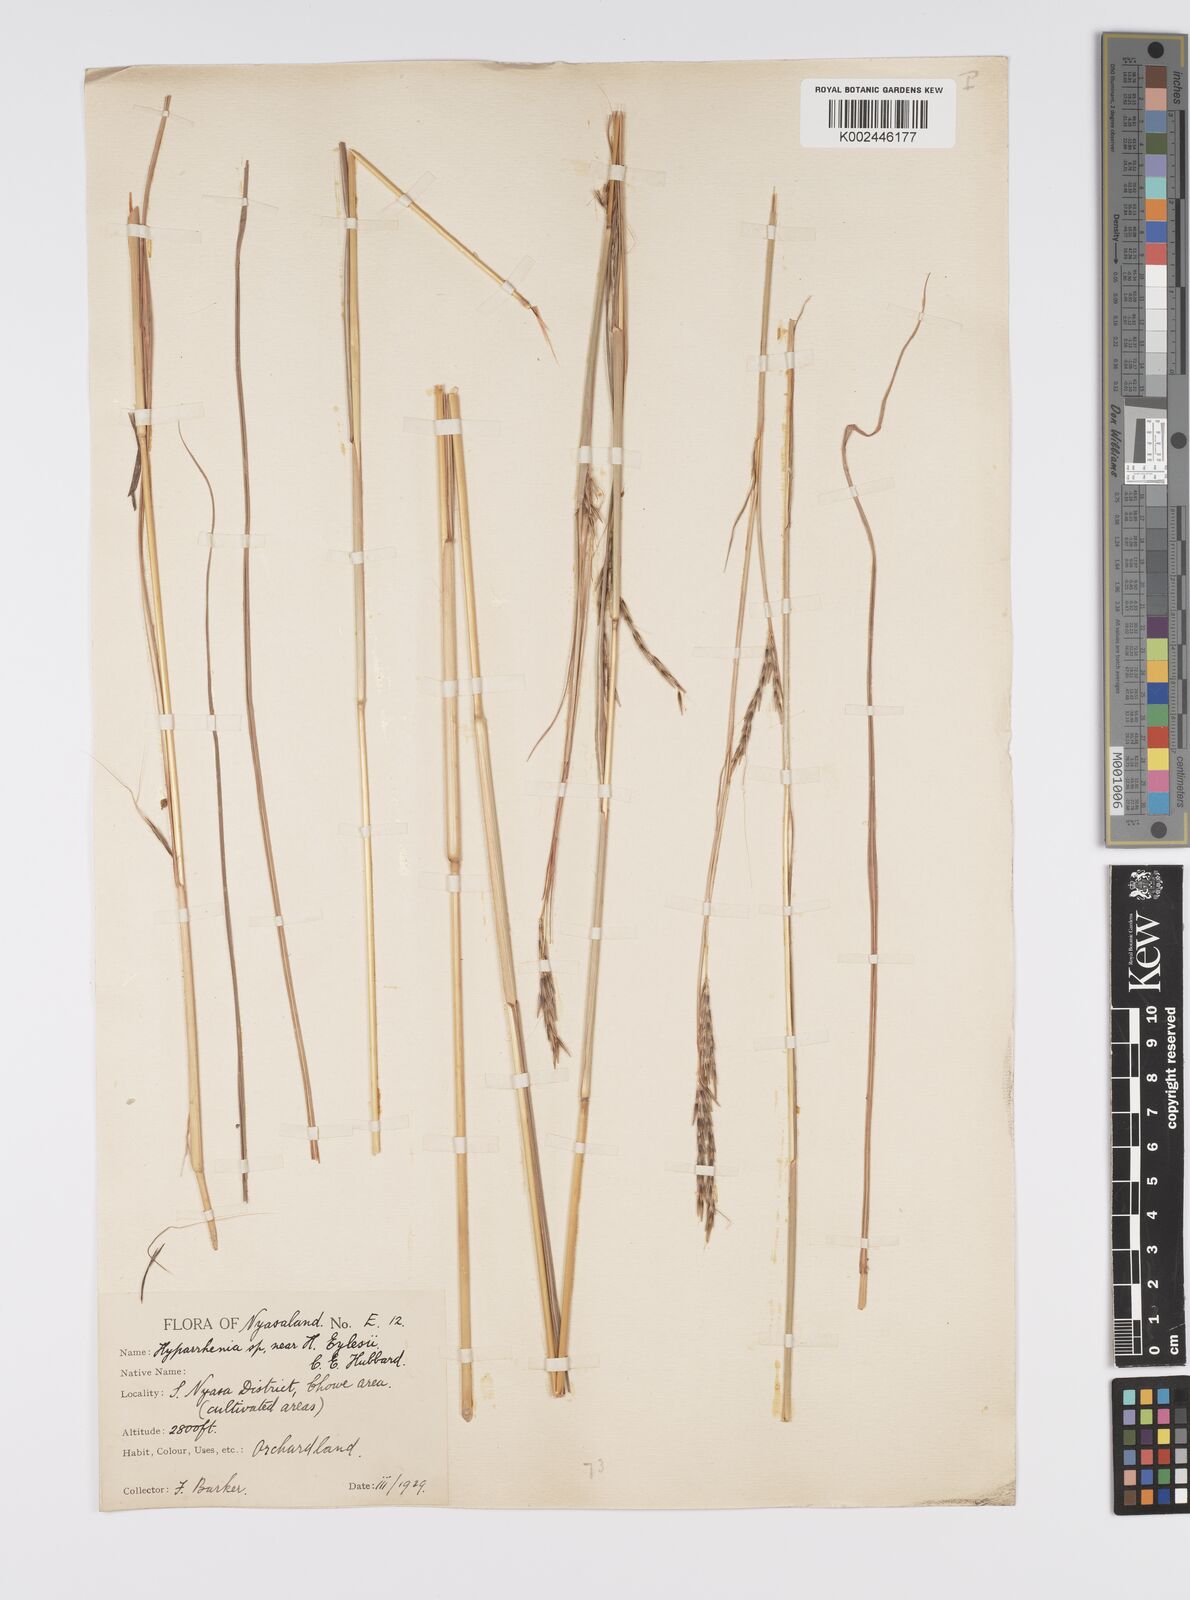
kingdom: Plantae
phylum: Tracheophyta
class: Liliopsida
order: Poales
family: Poaceae
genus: Elymandra
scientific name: Elymandra grallata
